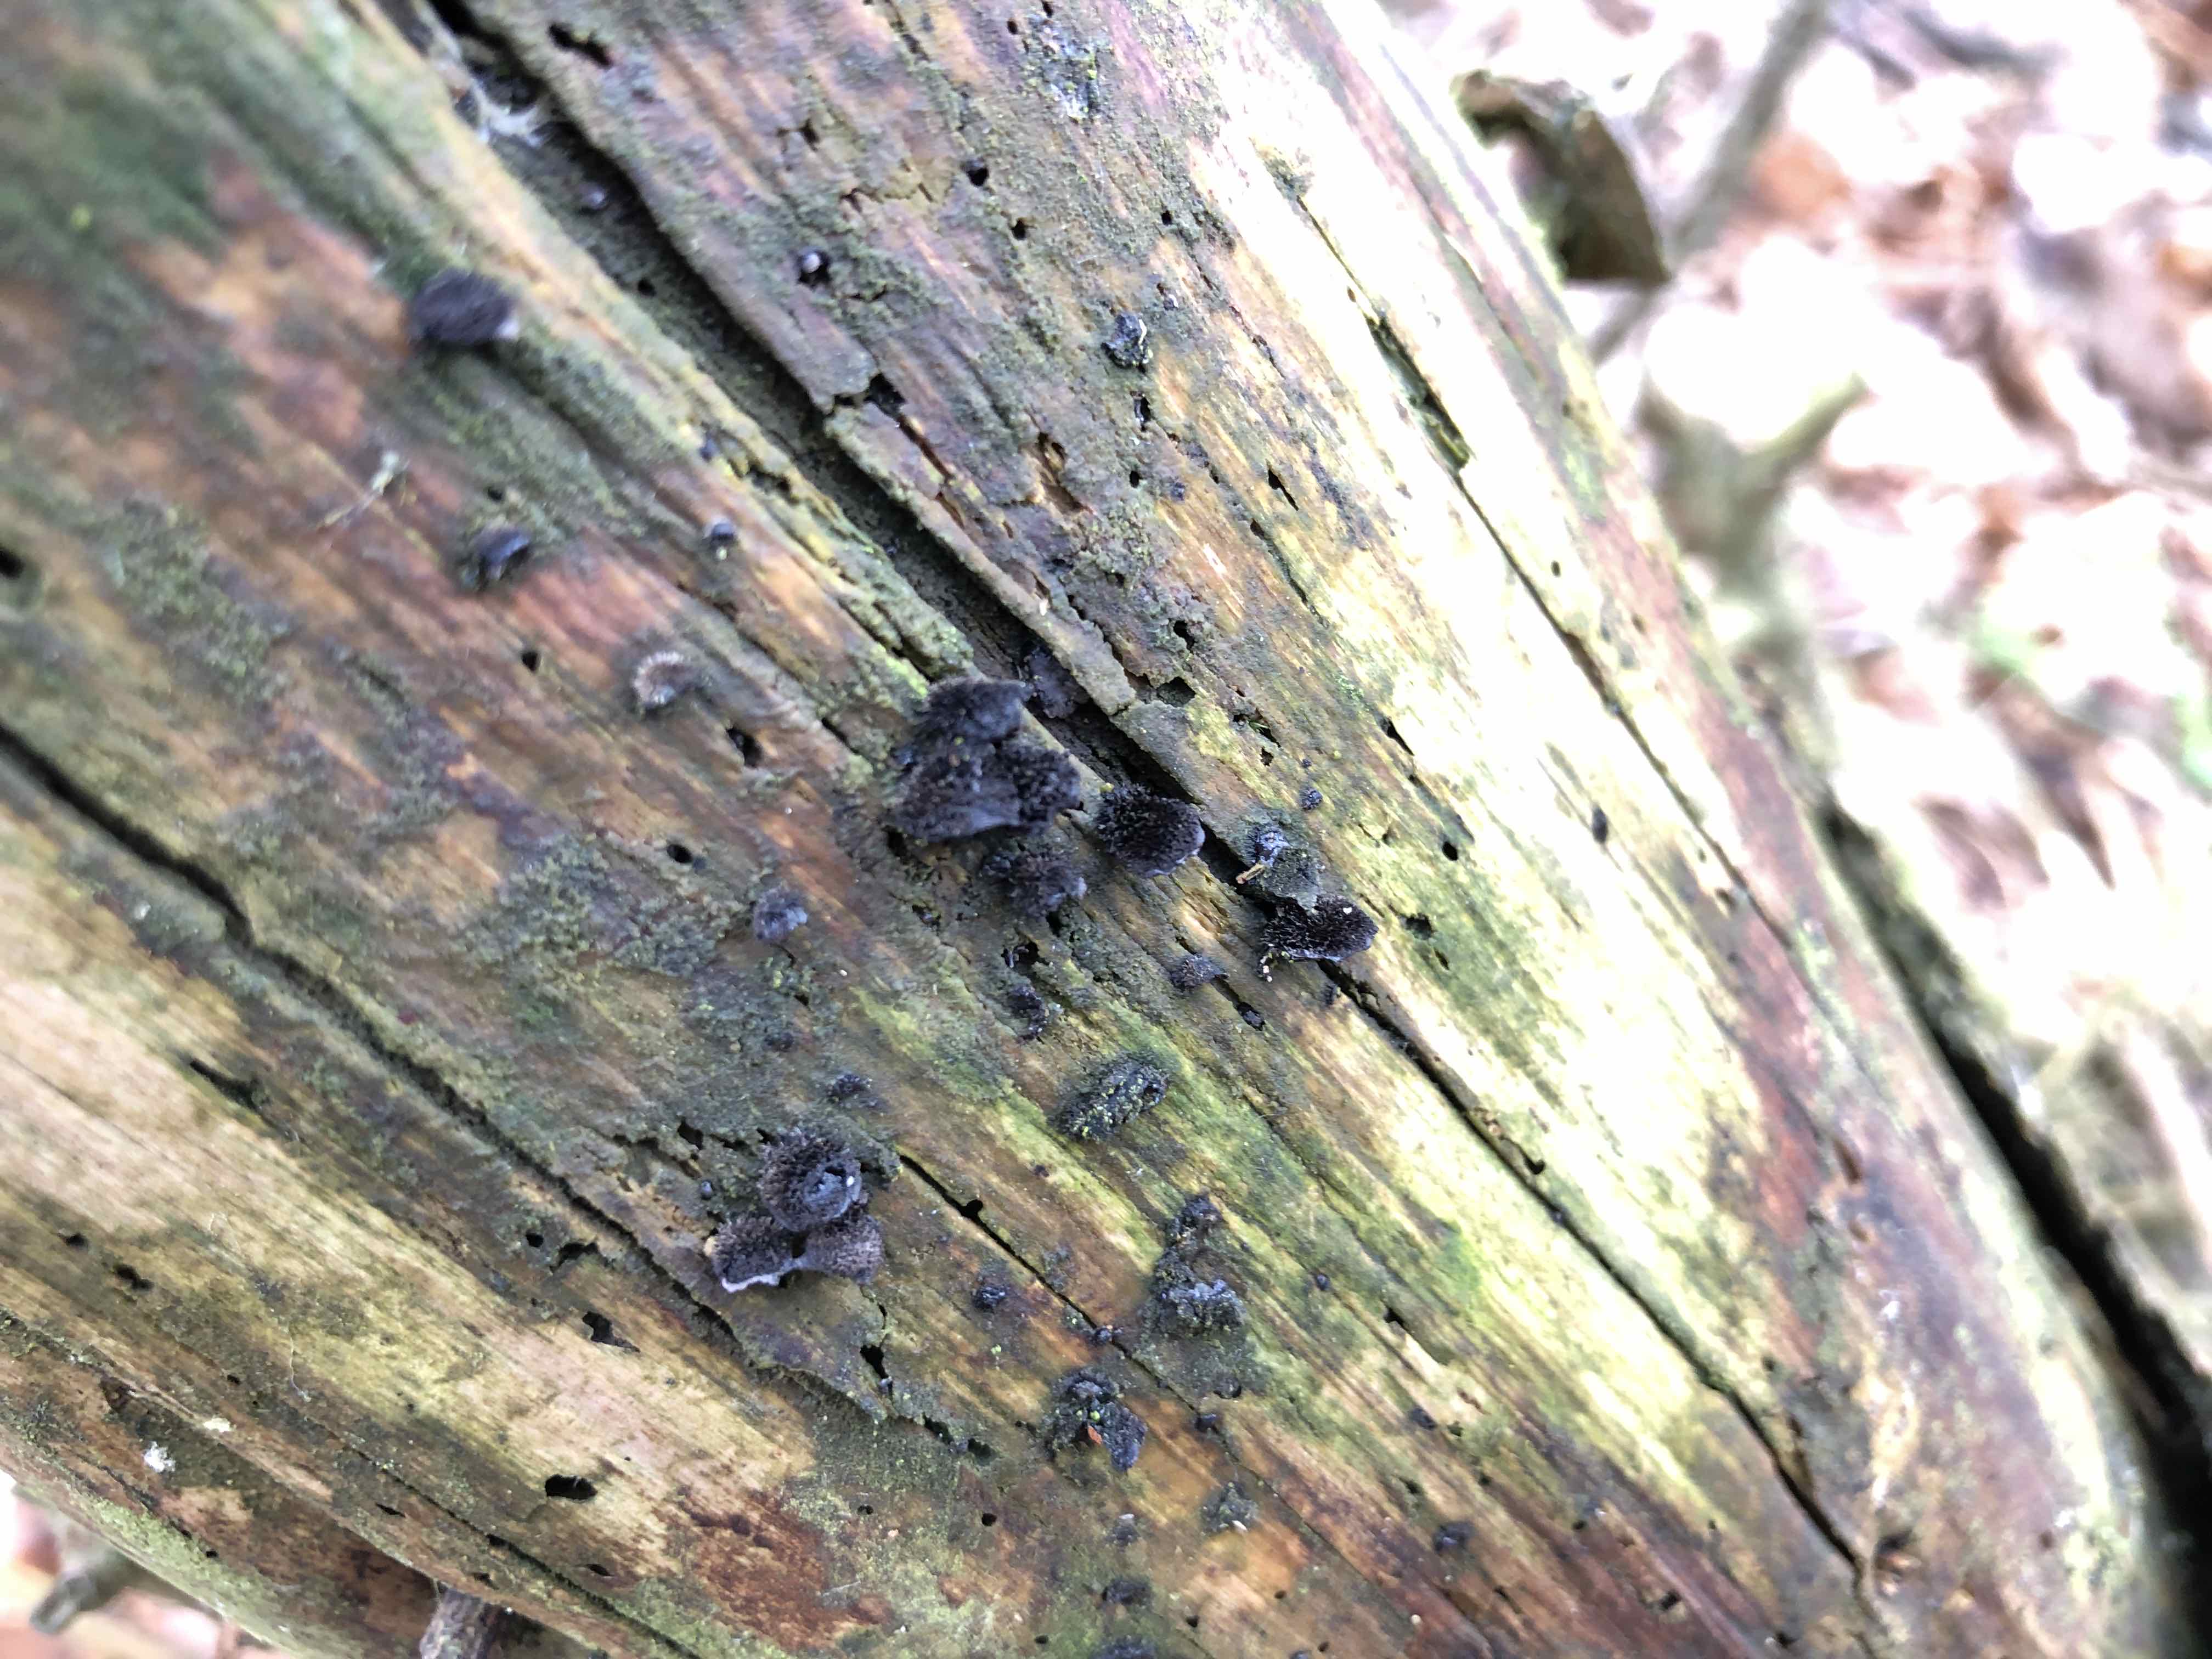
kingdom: Fungi
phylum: Basidiomycota
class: Agaricomycetes
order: Agaricales
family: Pleurotaceae
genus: Resupinatus
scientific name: Resupinatus trichotis
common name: mørkfiltet barkhat
